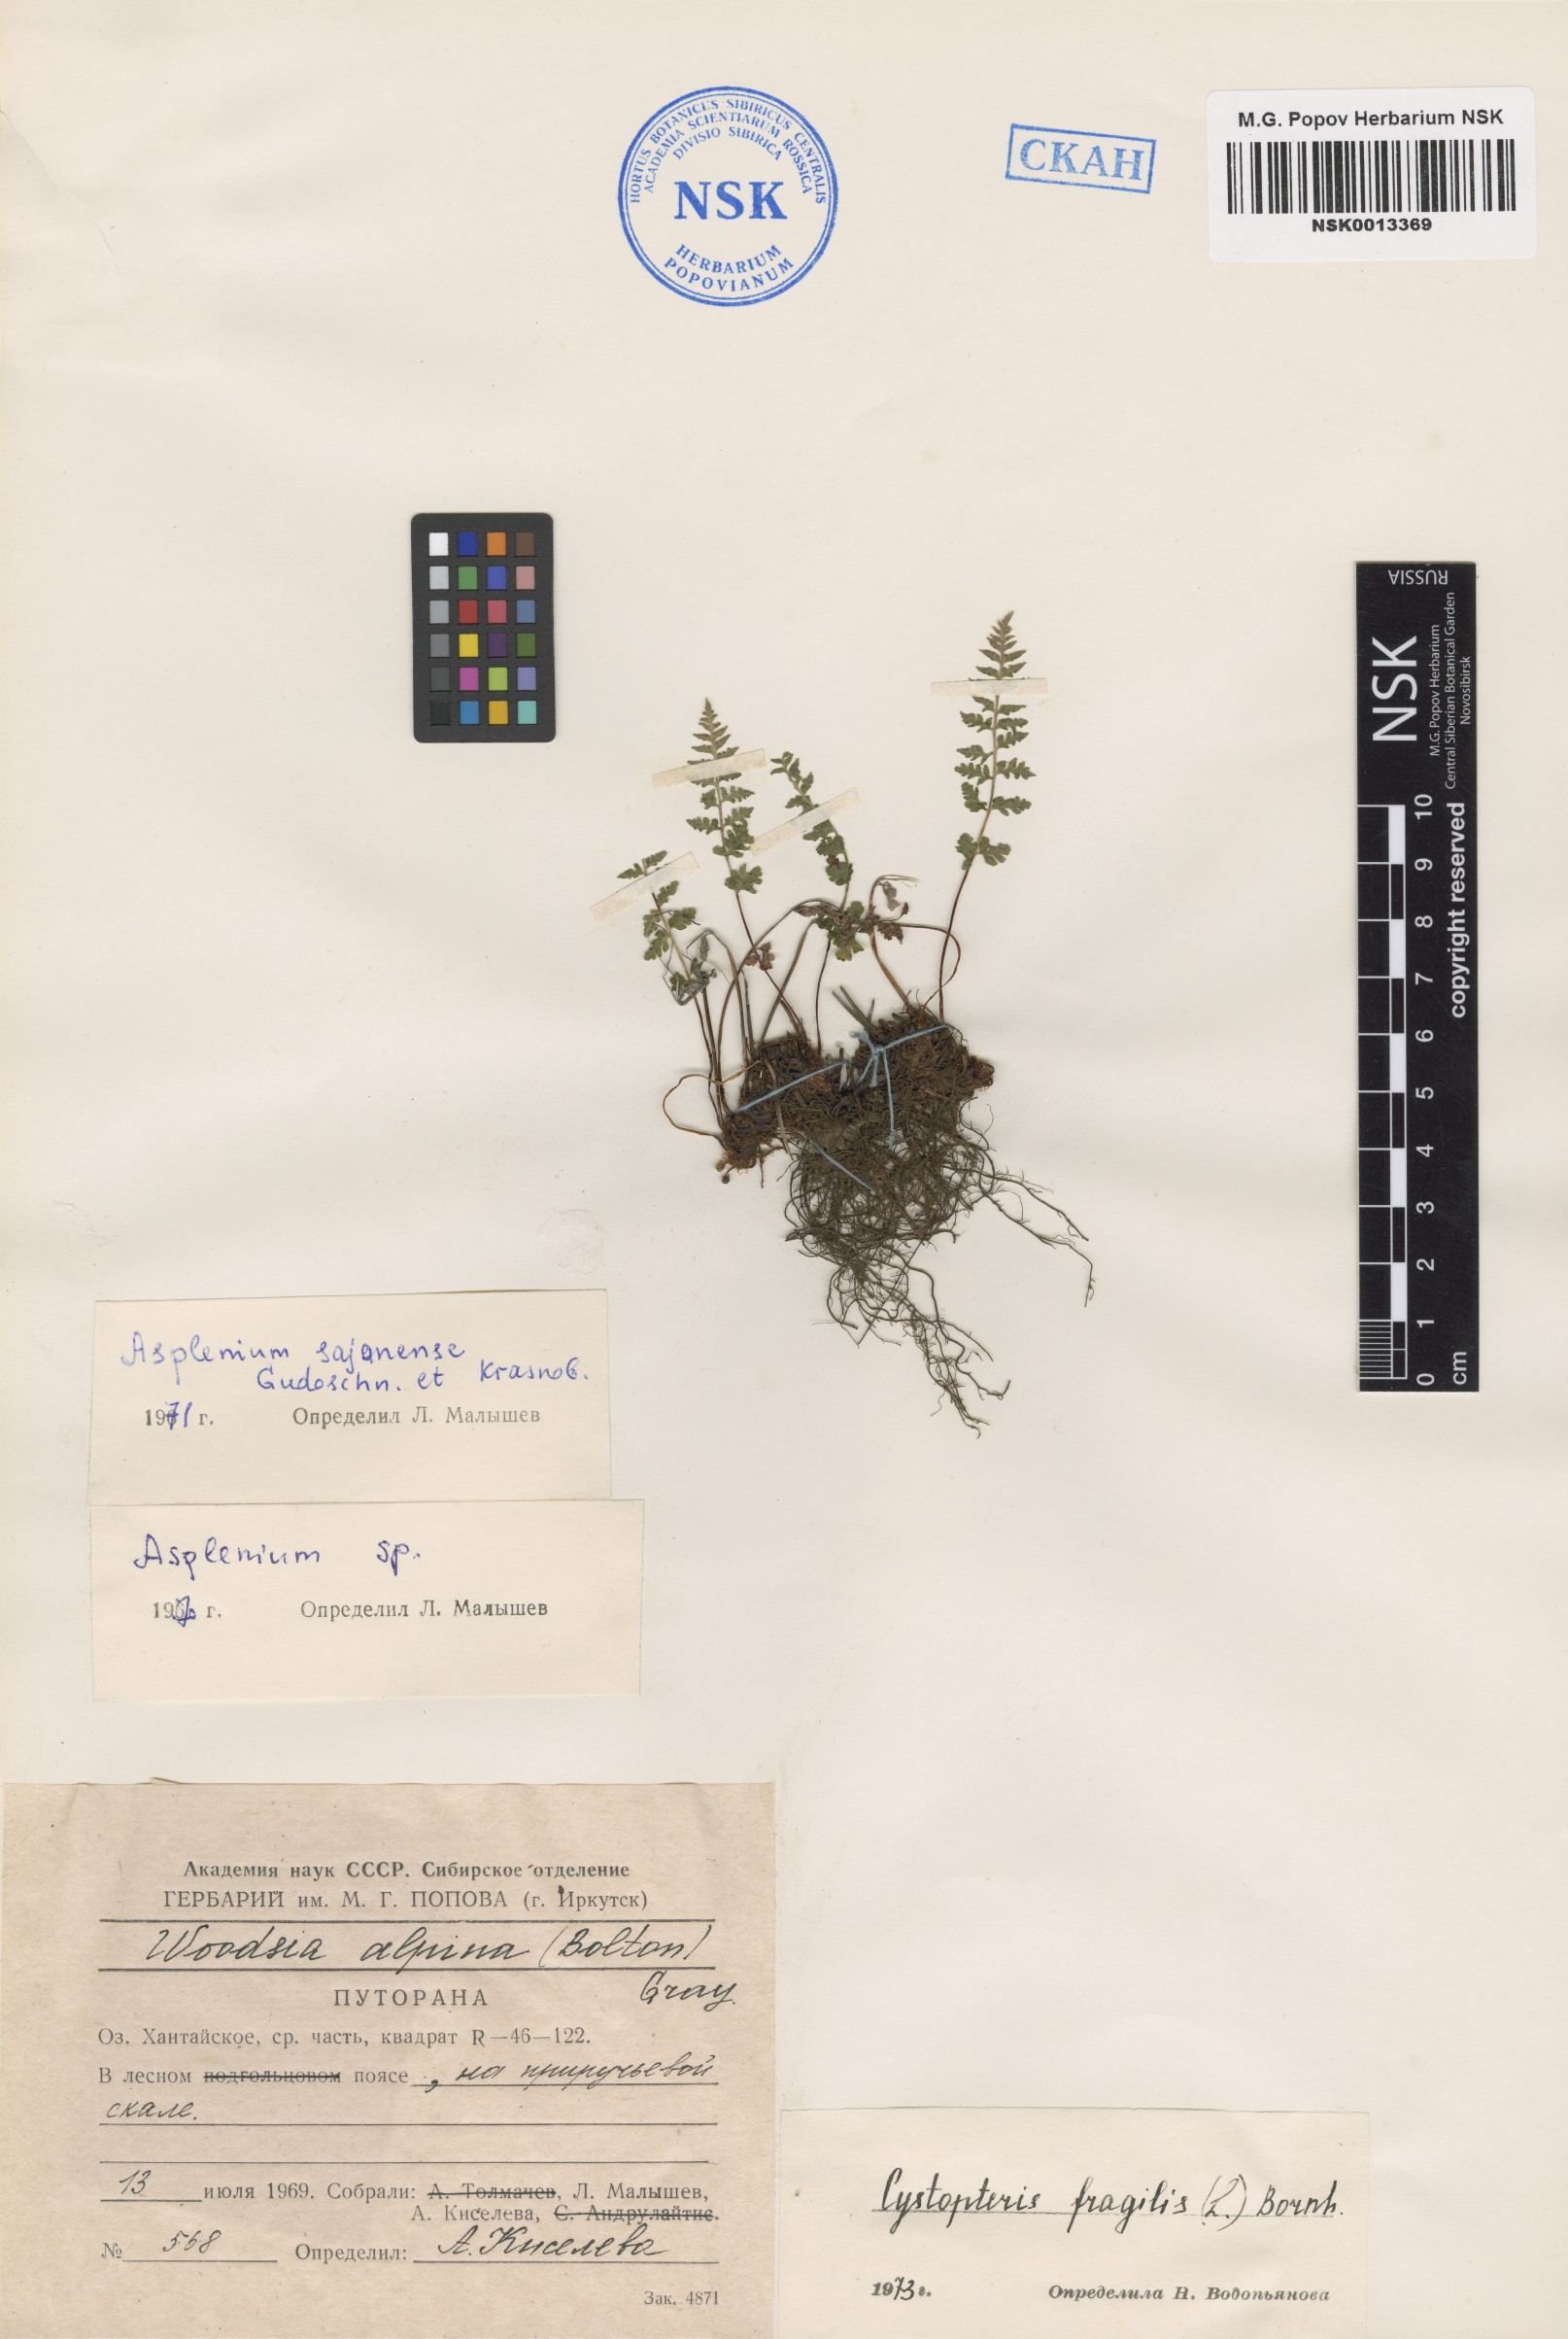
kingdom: Plantae
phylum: Tracheophyta
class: Polypodiopsida
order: Polypodiales
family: Cystopteridaceae
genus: Cystopteris
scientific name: Cystopteris fragilis
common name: Brittle bladder fern
